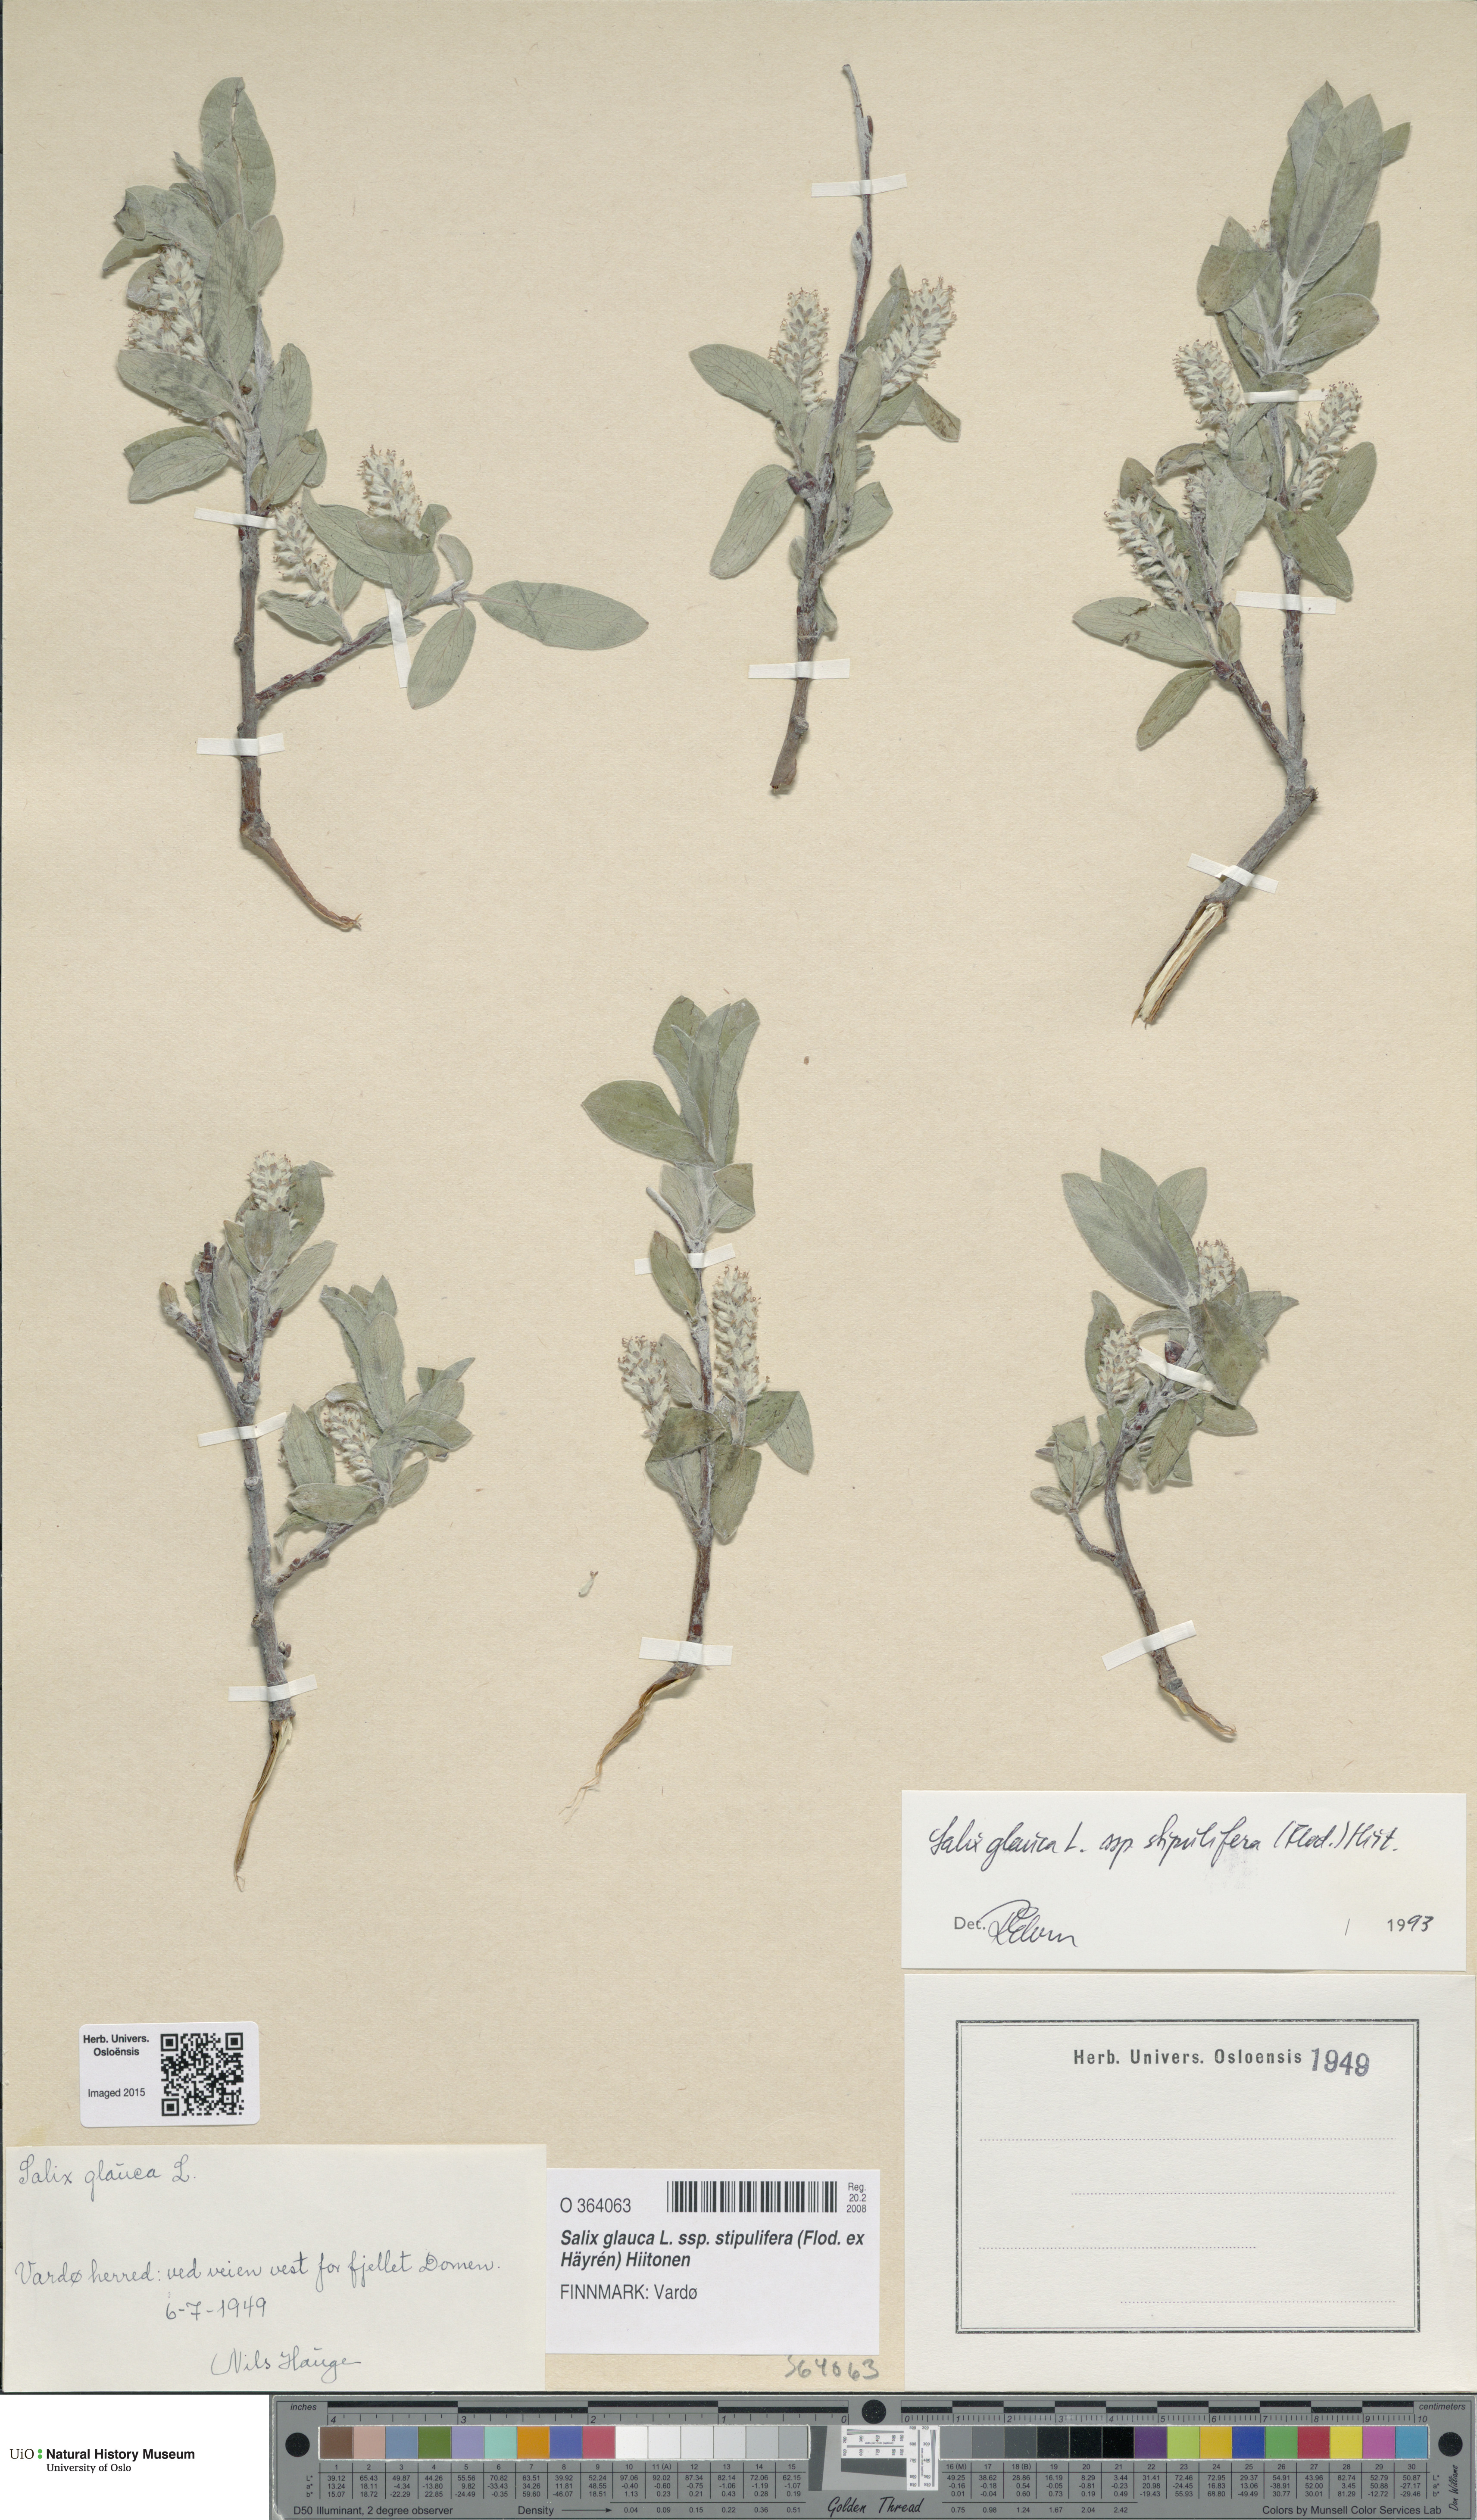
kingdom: Plantae
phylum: Tracheophyta
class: Magnoliopsida
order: Malpighiales
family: Salicaceae
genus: Salix
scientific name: Salix glauca
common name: Glaucous willow
